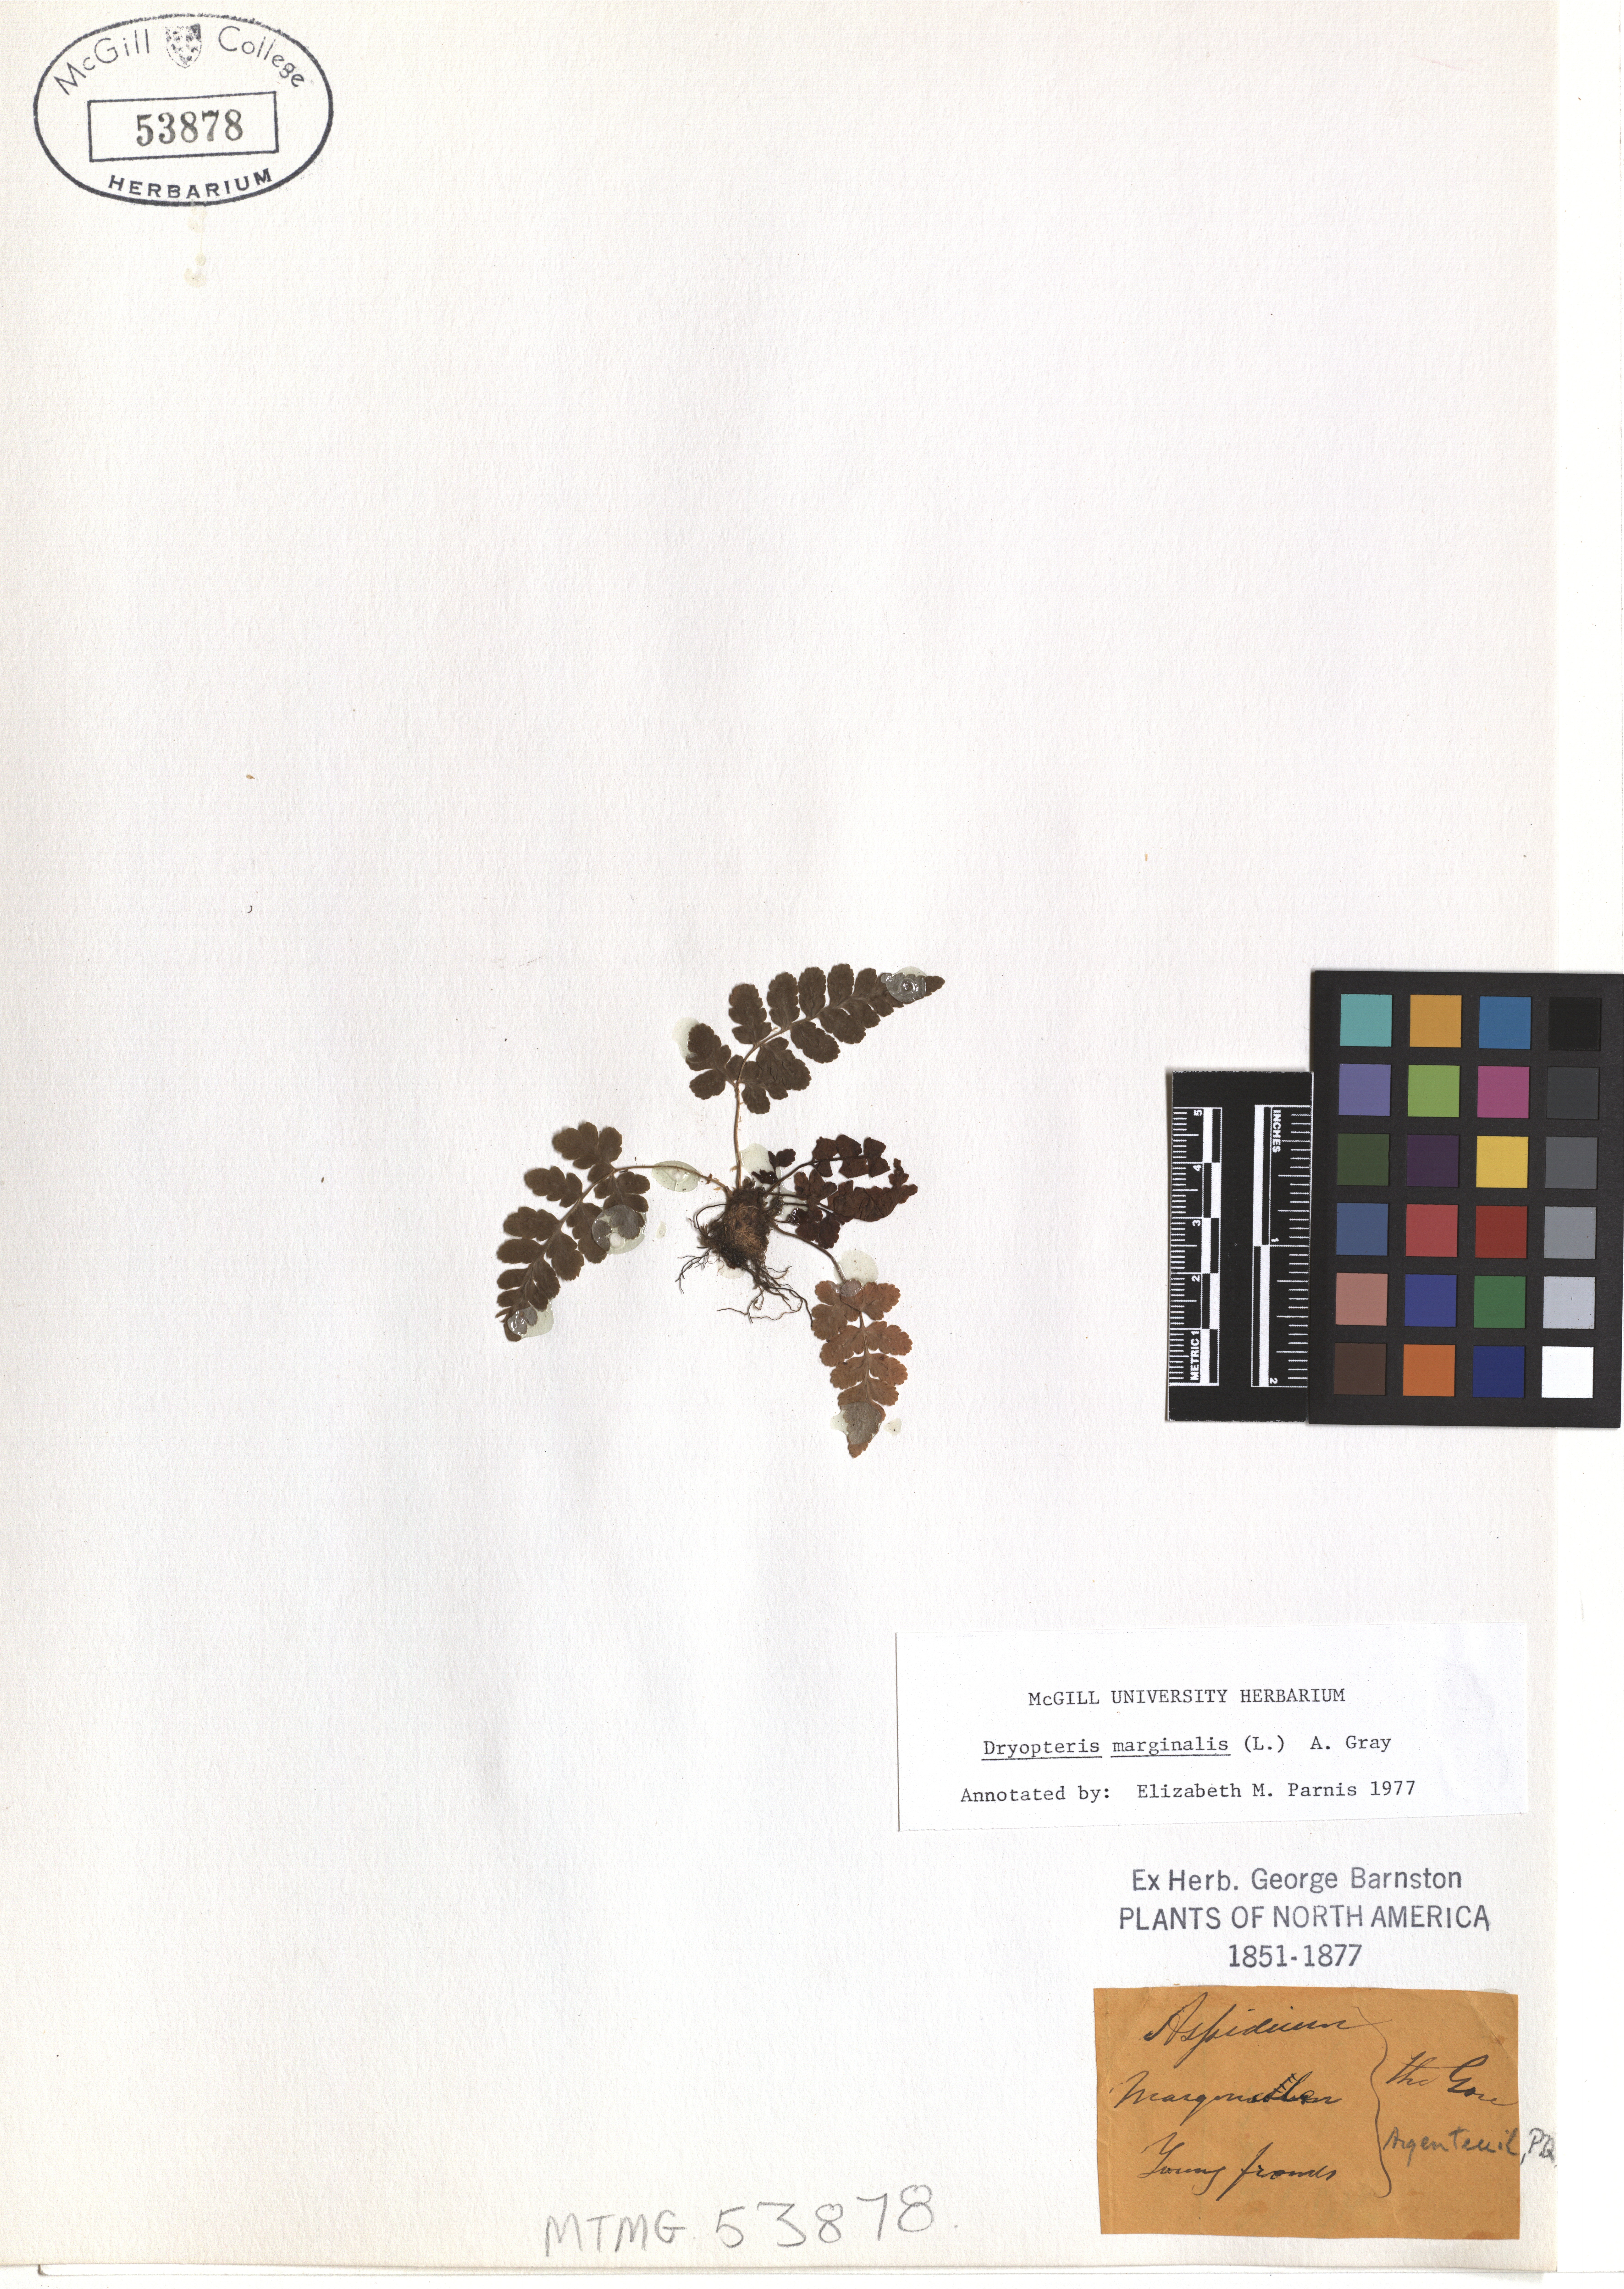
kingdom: Plantae
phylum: Tracheophyta
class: Polypodiopsida
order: Polypodiales
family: Dryopteridaceae
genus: Dryopteris
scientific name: Dryopteris marginalis
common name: Marginal wood fern
